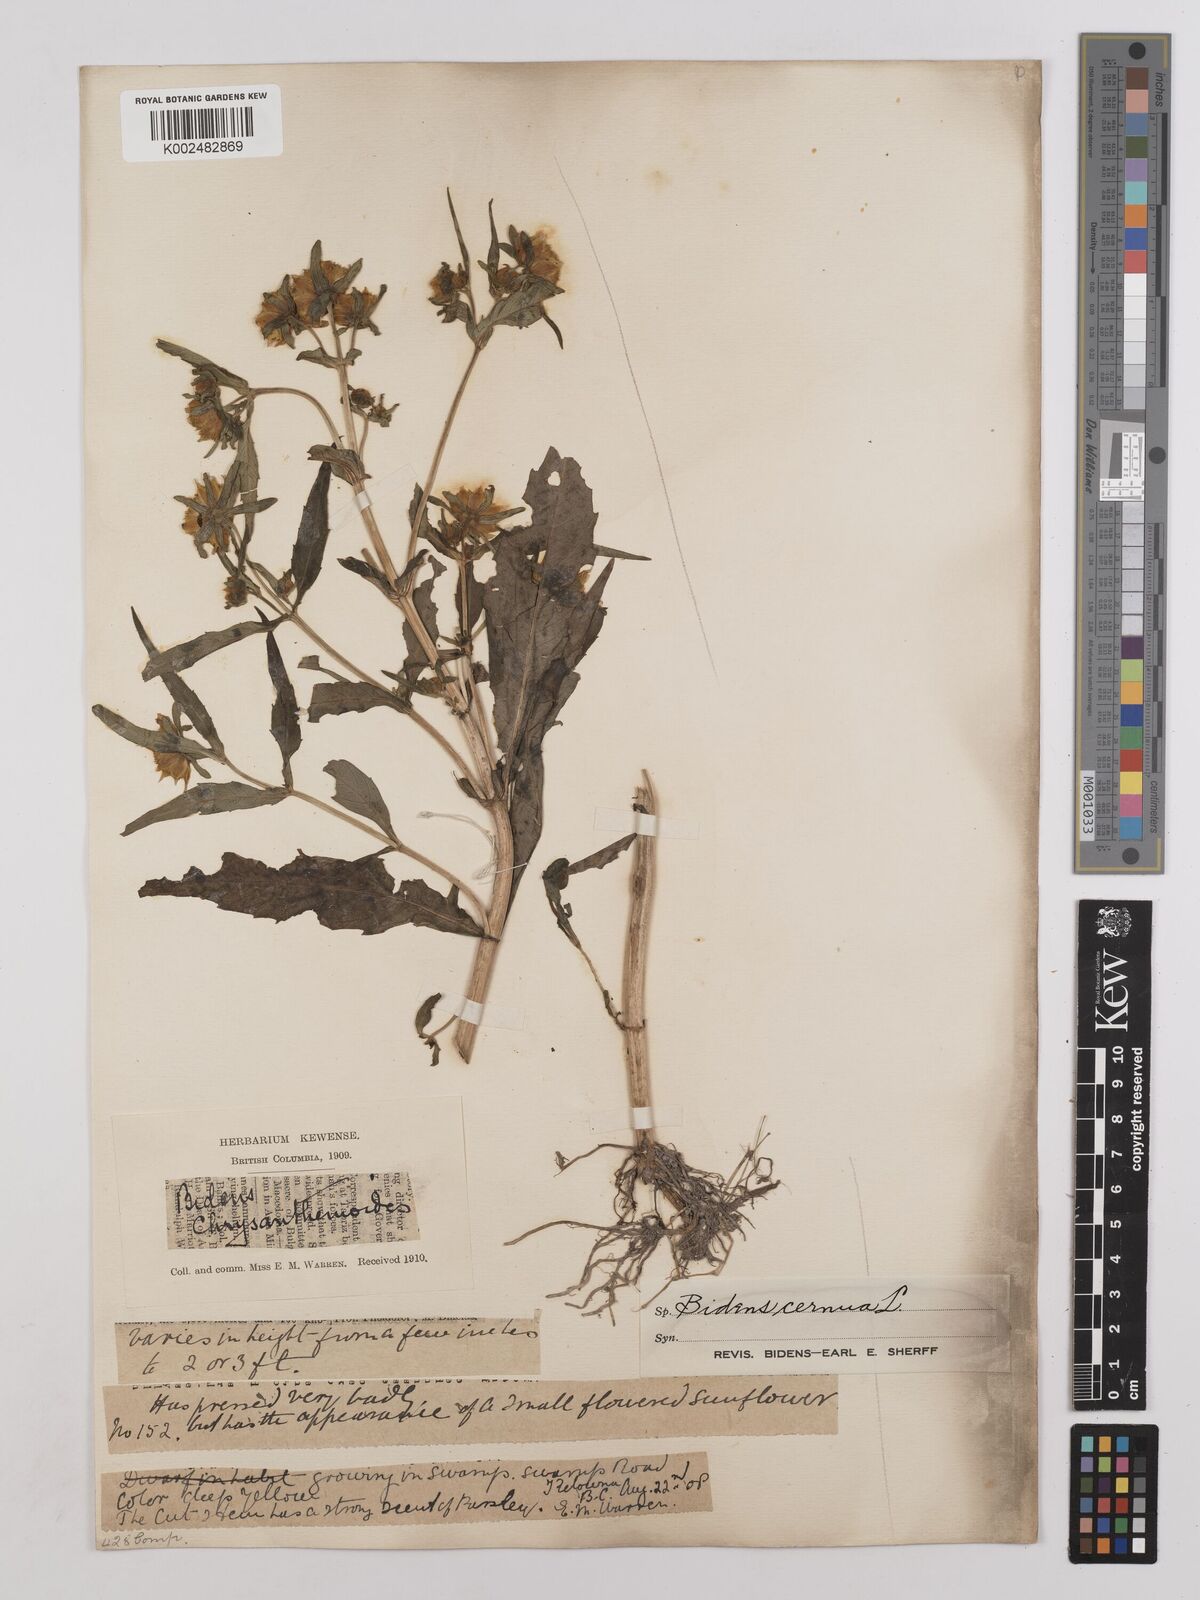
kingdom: Plantae
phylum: Tracheophyta
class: Magnoliopsida
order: Asterales
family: Asteraceae
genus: Bidens
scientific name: Bidens
